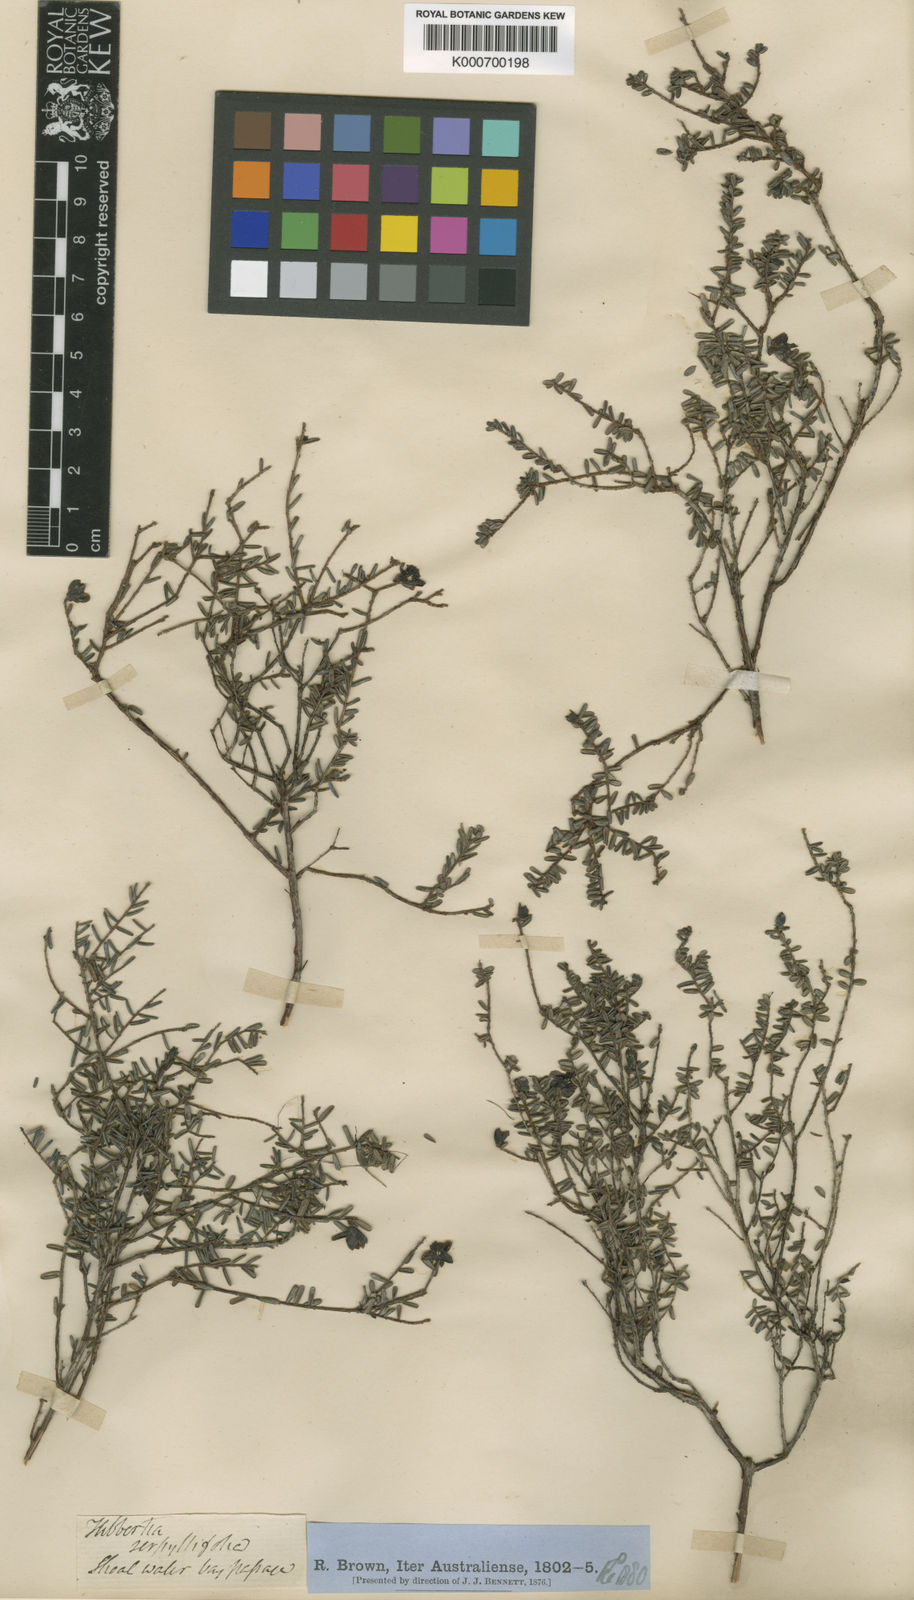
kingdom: Plantae
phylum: Tracheophyta
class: Magnoliopsida
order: Dilleniales
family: Dilleniaceae
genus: Hibbertia
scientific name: Hibbertia serpyllifolia
